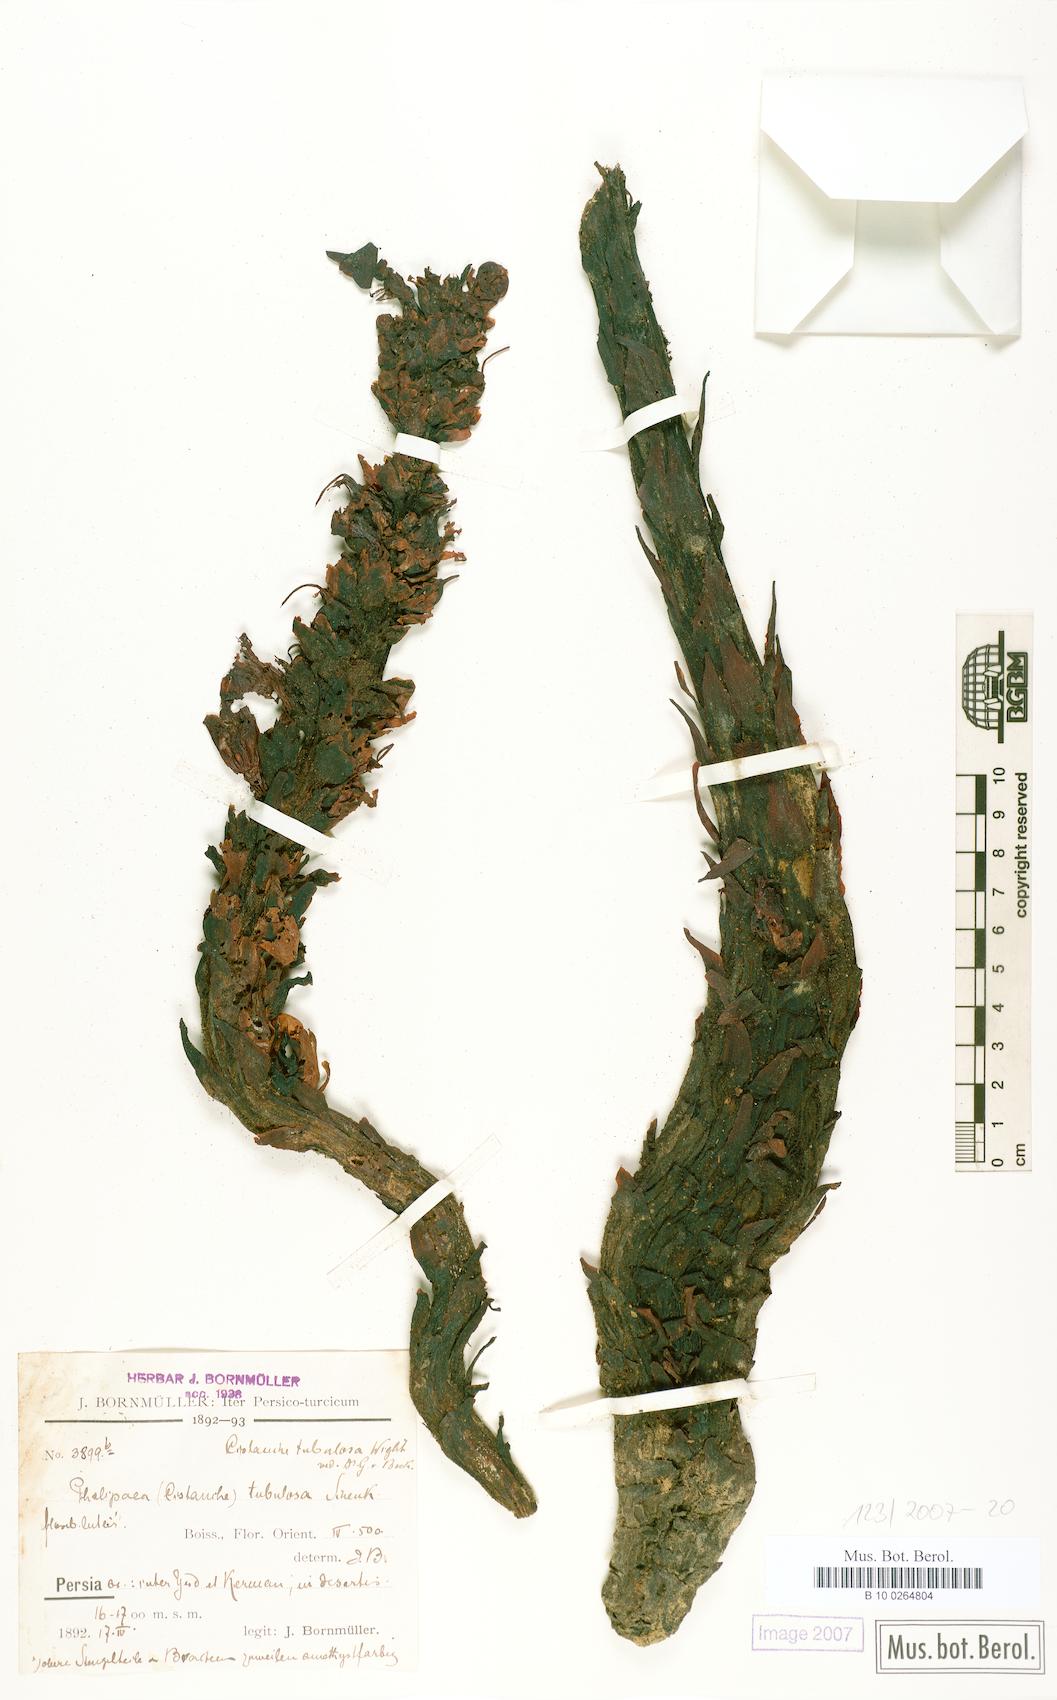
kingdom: Plantae
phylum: Tracheophyta
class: Magnoliopsida
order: Lamiales
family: Orobanchaceae
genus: Cistanche
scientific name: Cistanche tubulosa
